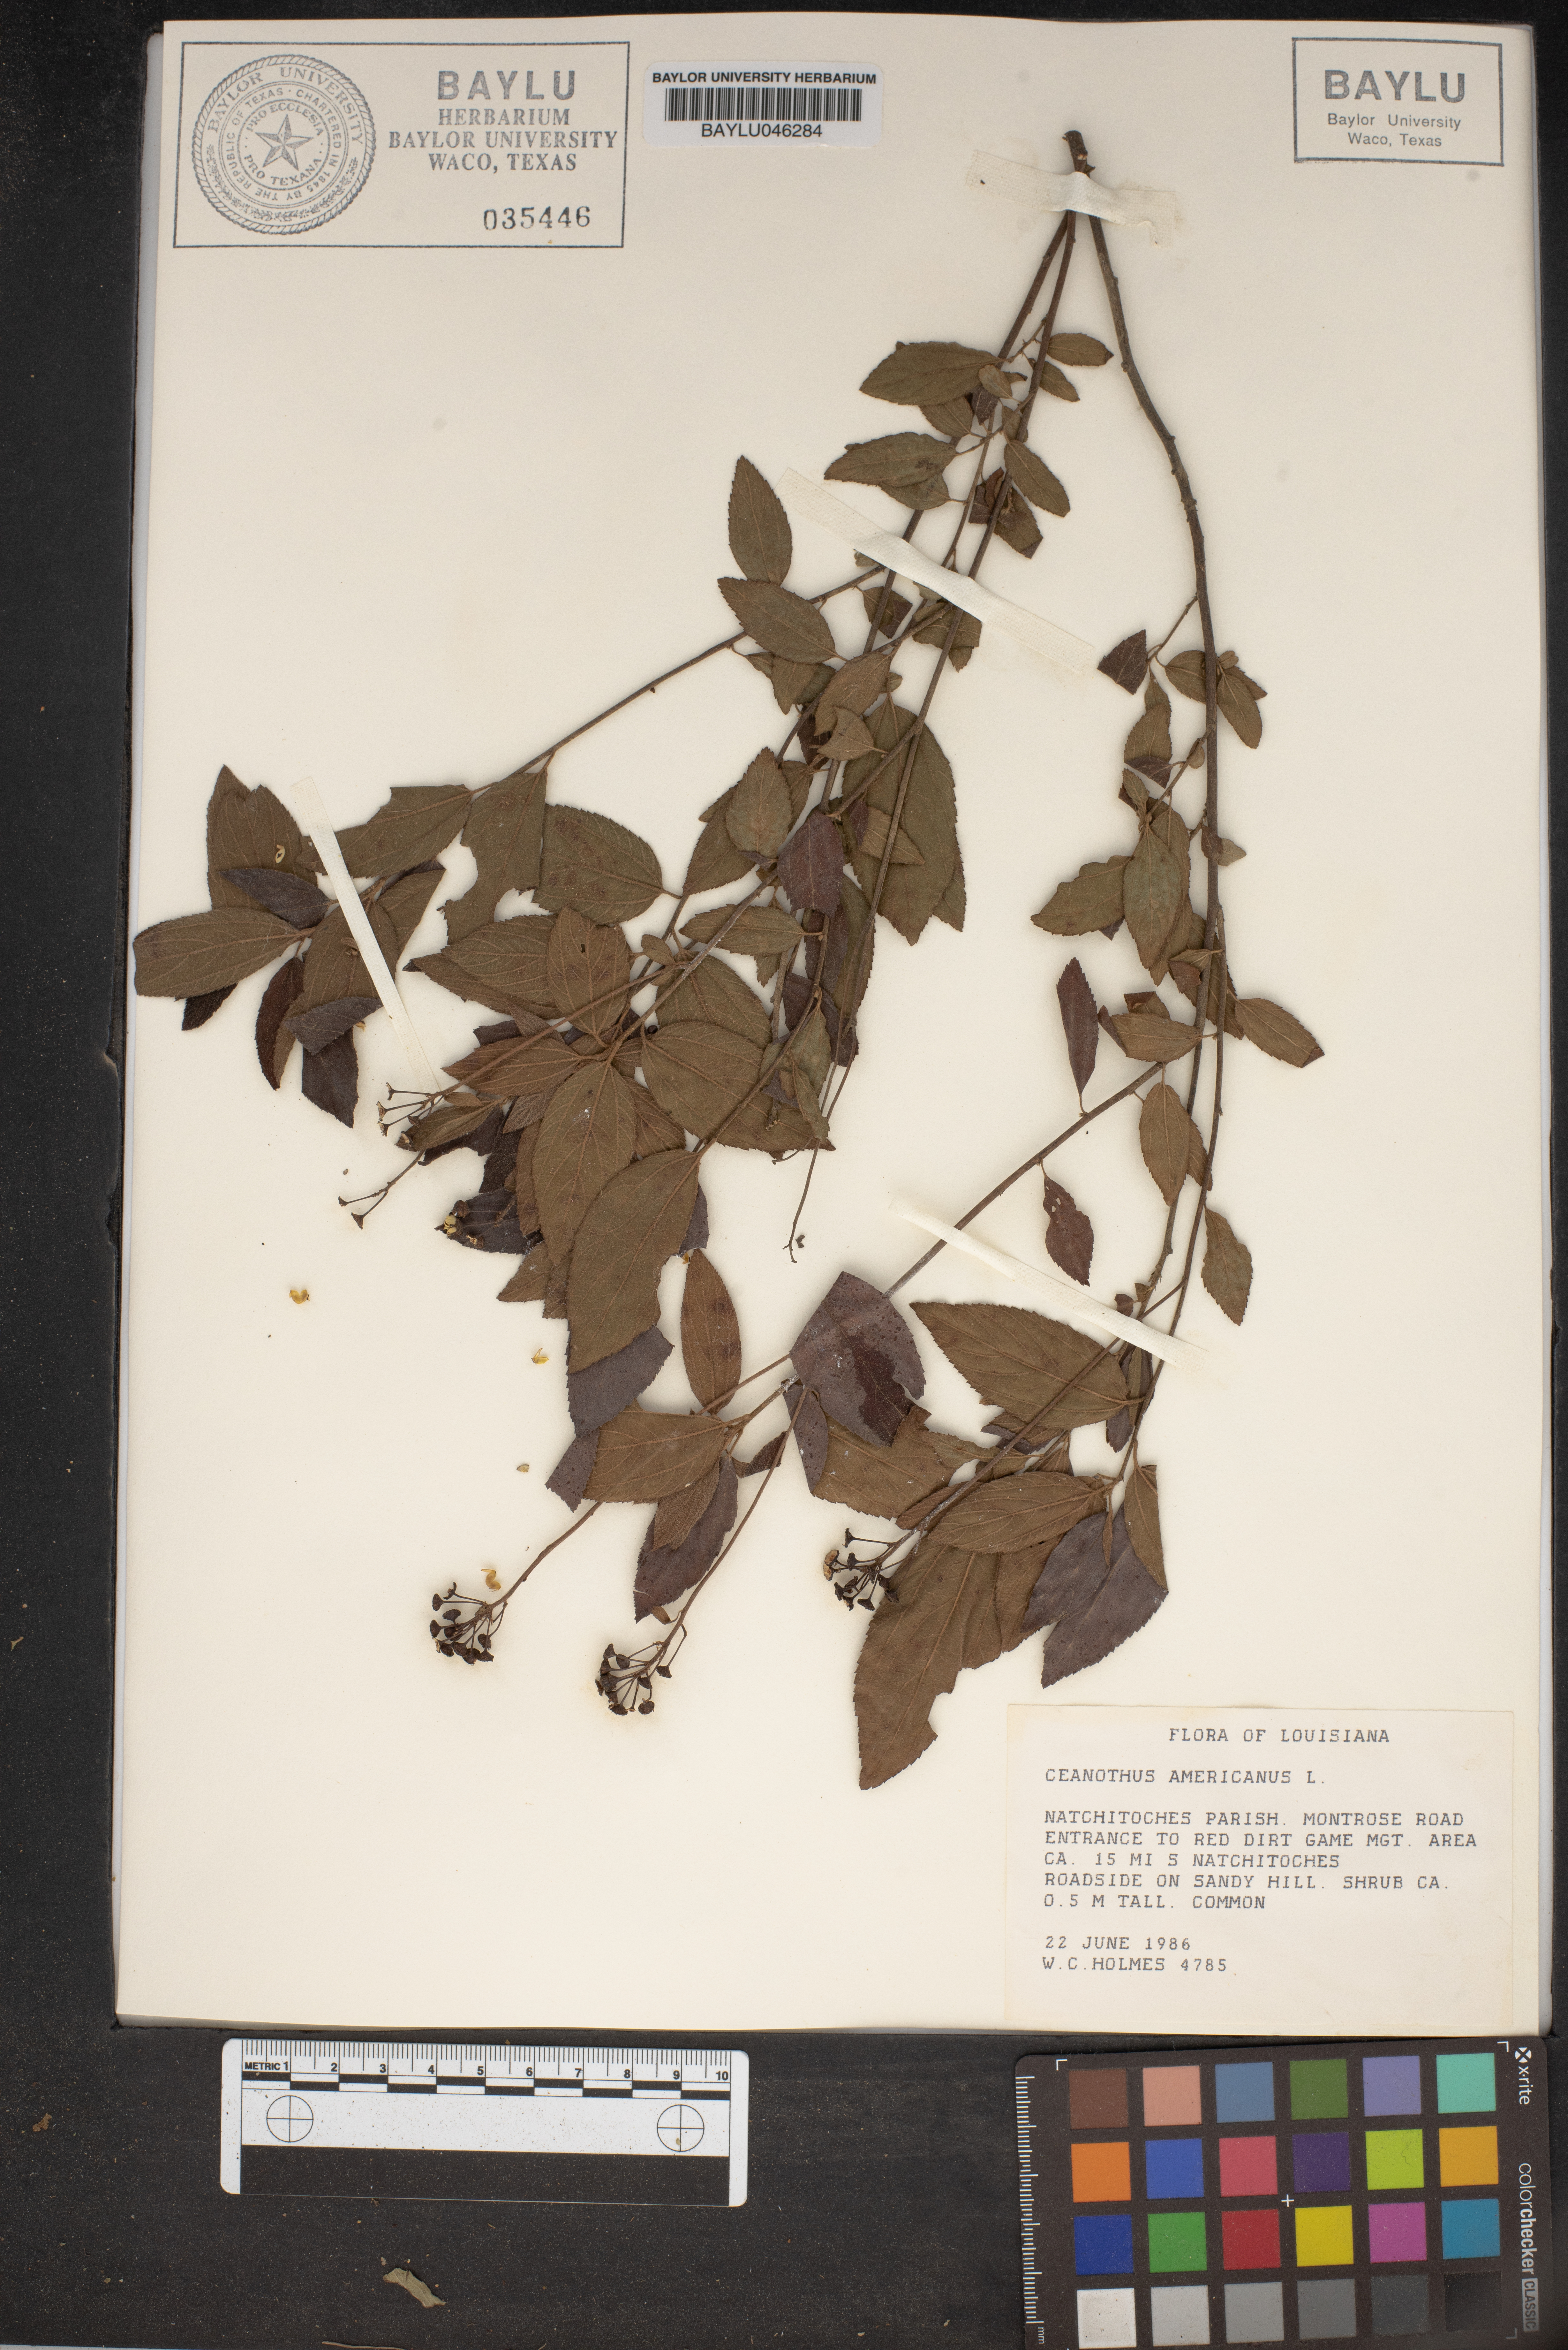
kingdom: Plantae
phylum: Tracheophyta
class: Magnoliopsida
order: Rosales
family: Rhamnaceae
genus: Ceanothus
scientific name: Ceanothus americanus
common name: Redroot
